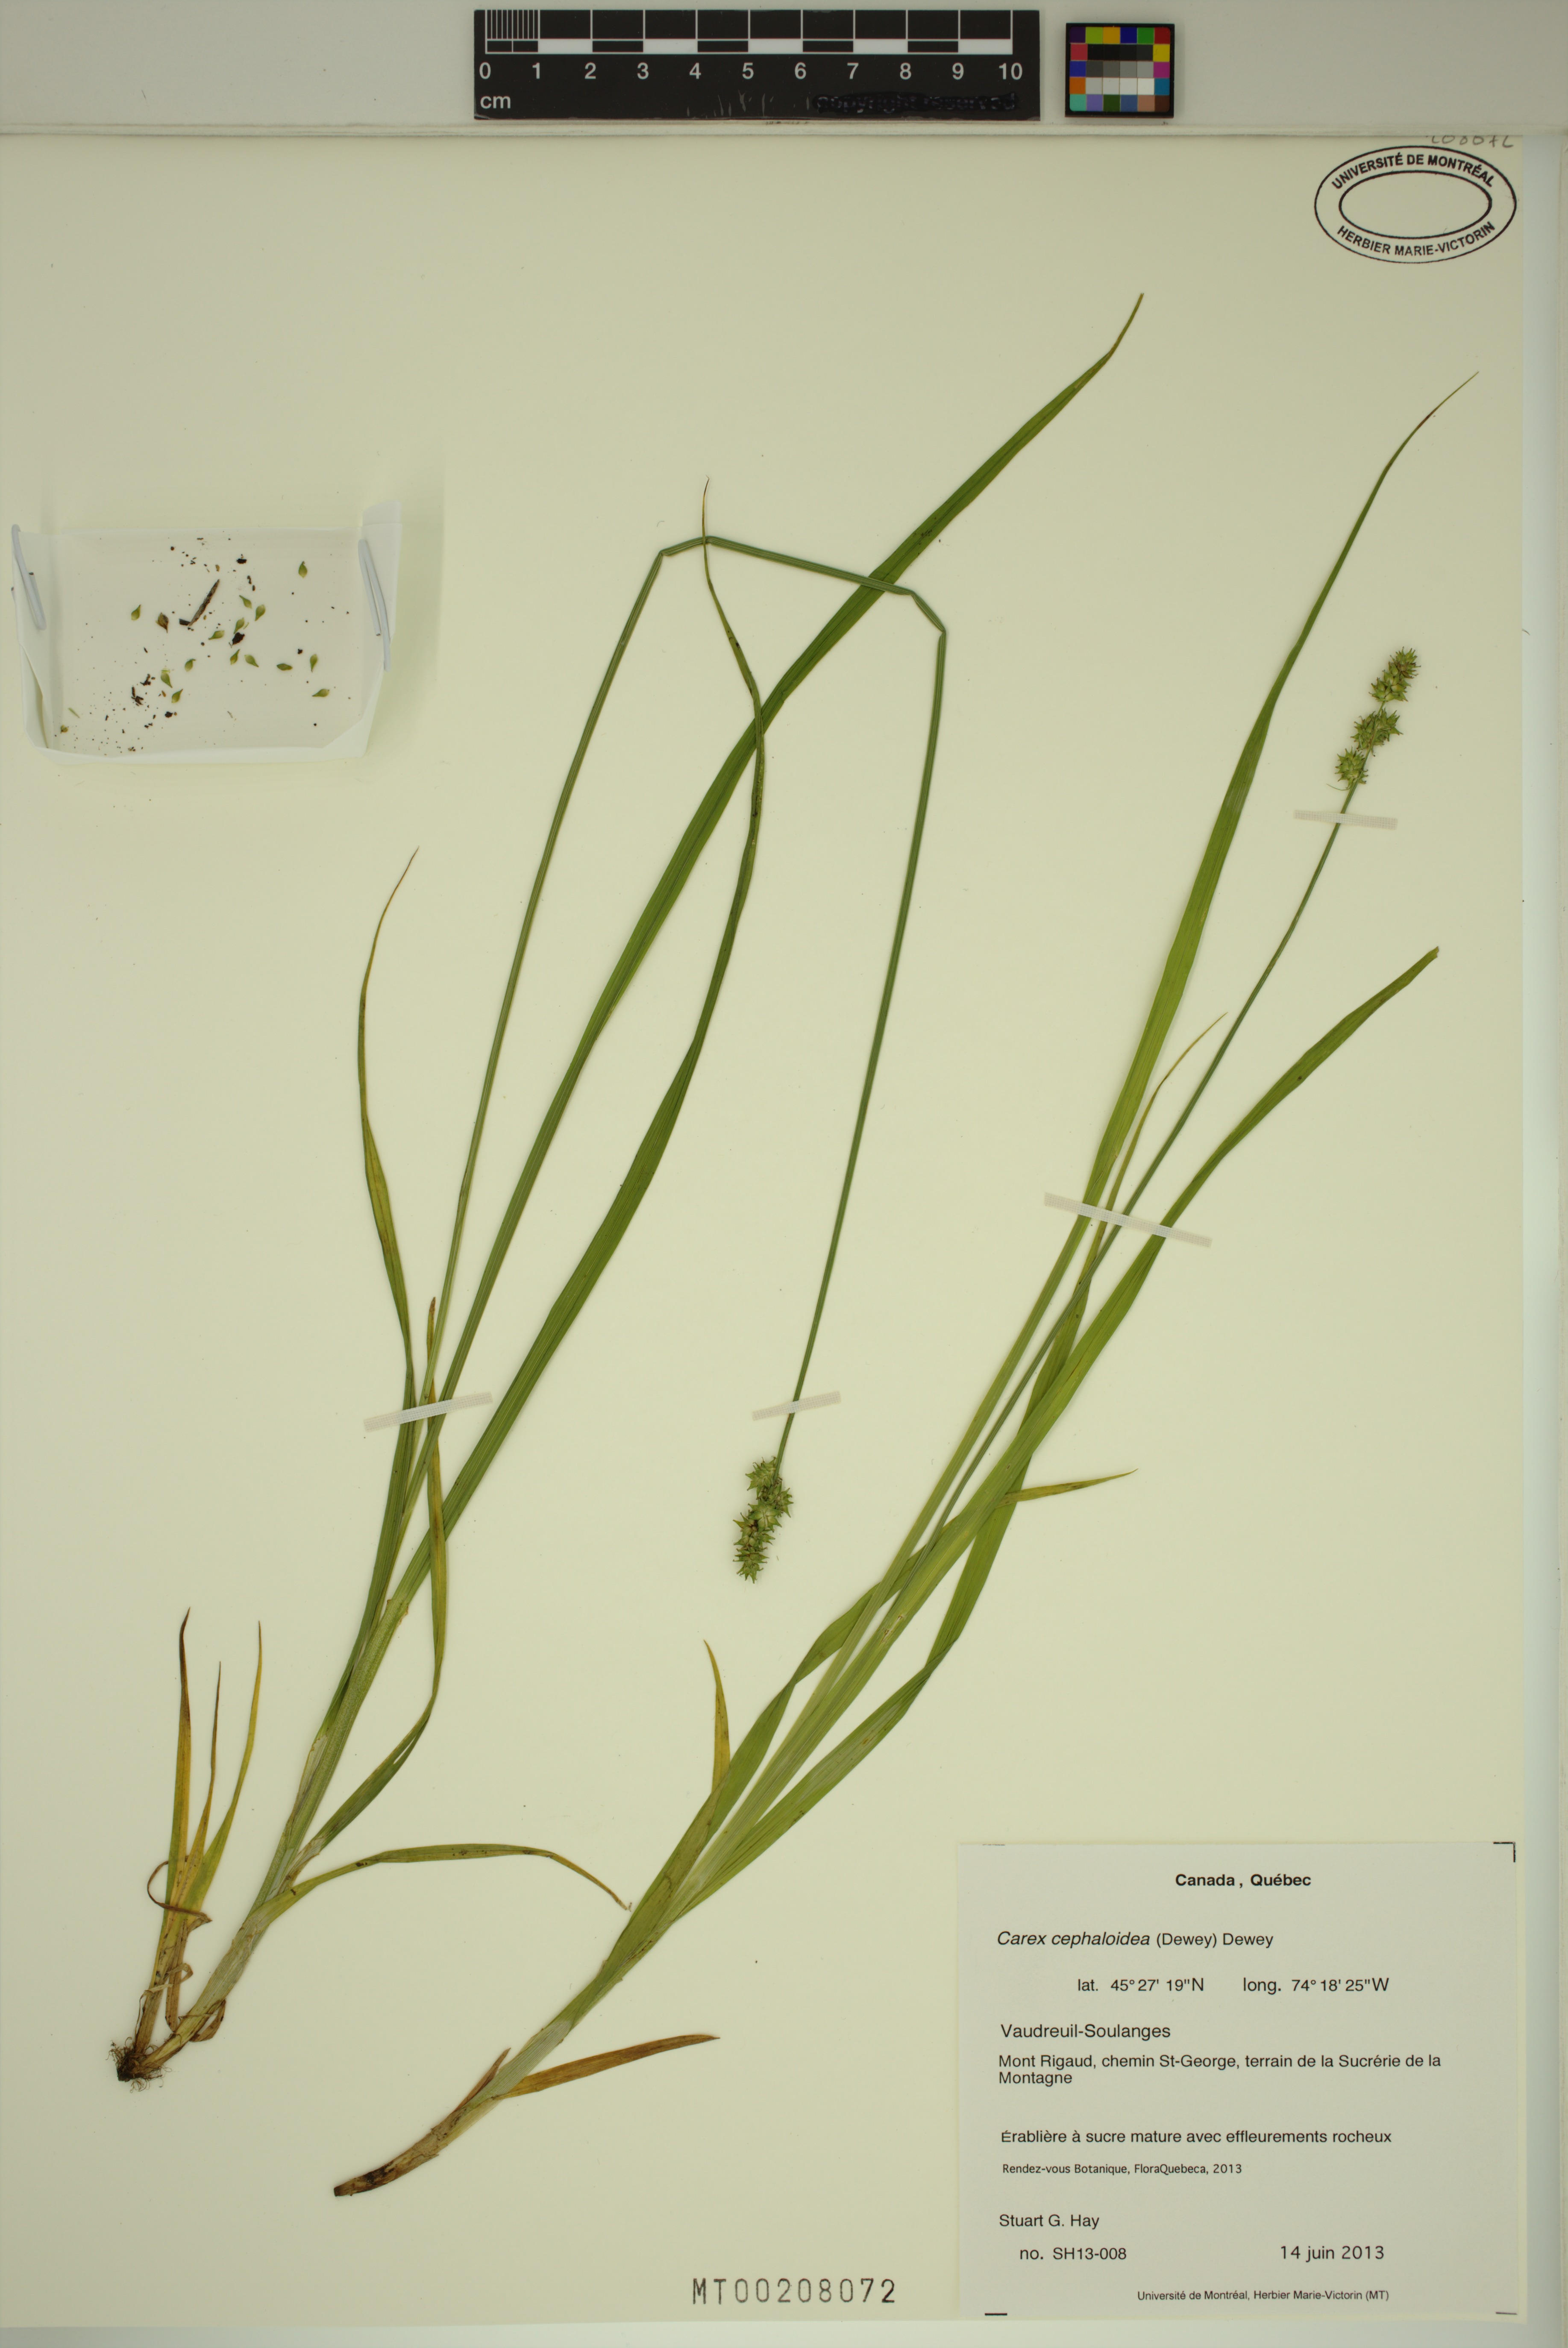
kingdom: Plantae
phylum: Tracheophyta
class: Liliopsida
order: Poales
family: Cyperaceae
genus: Carex
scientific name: Carex cephaloidea
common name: Thin-leaved sedge
